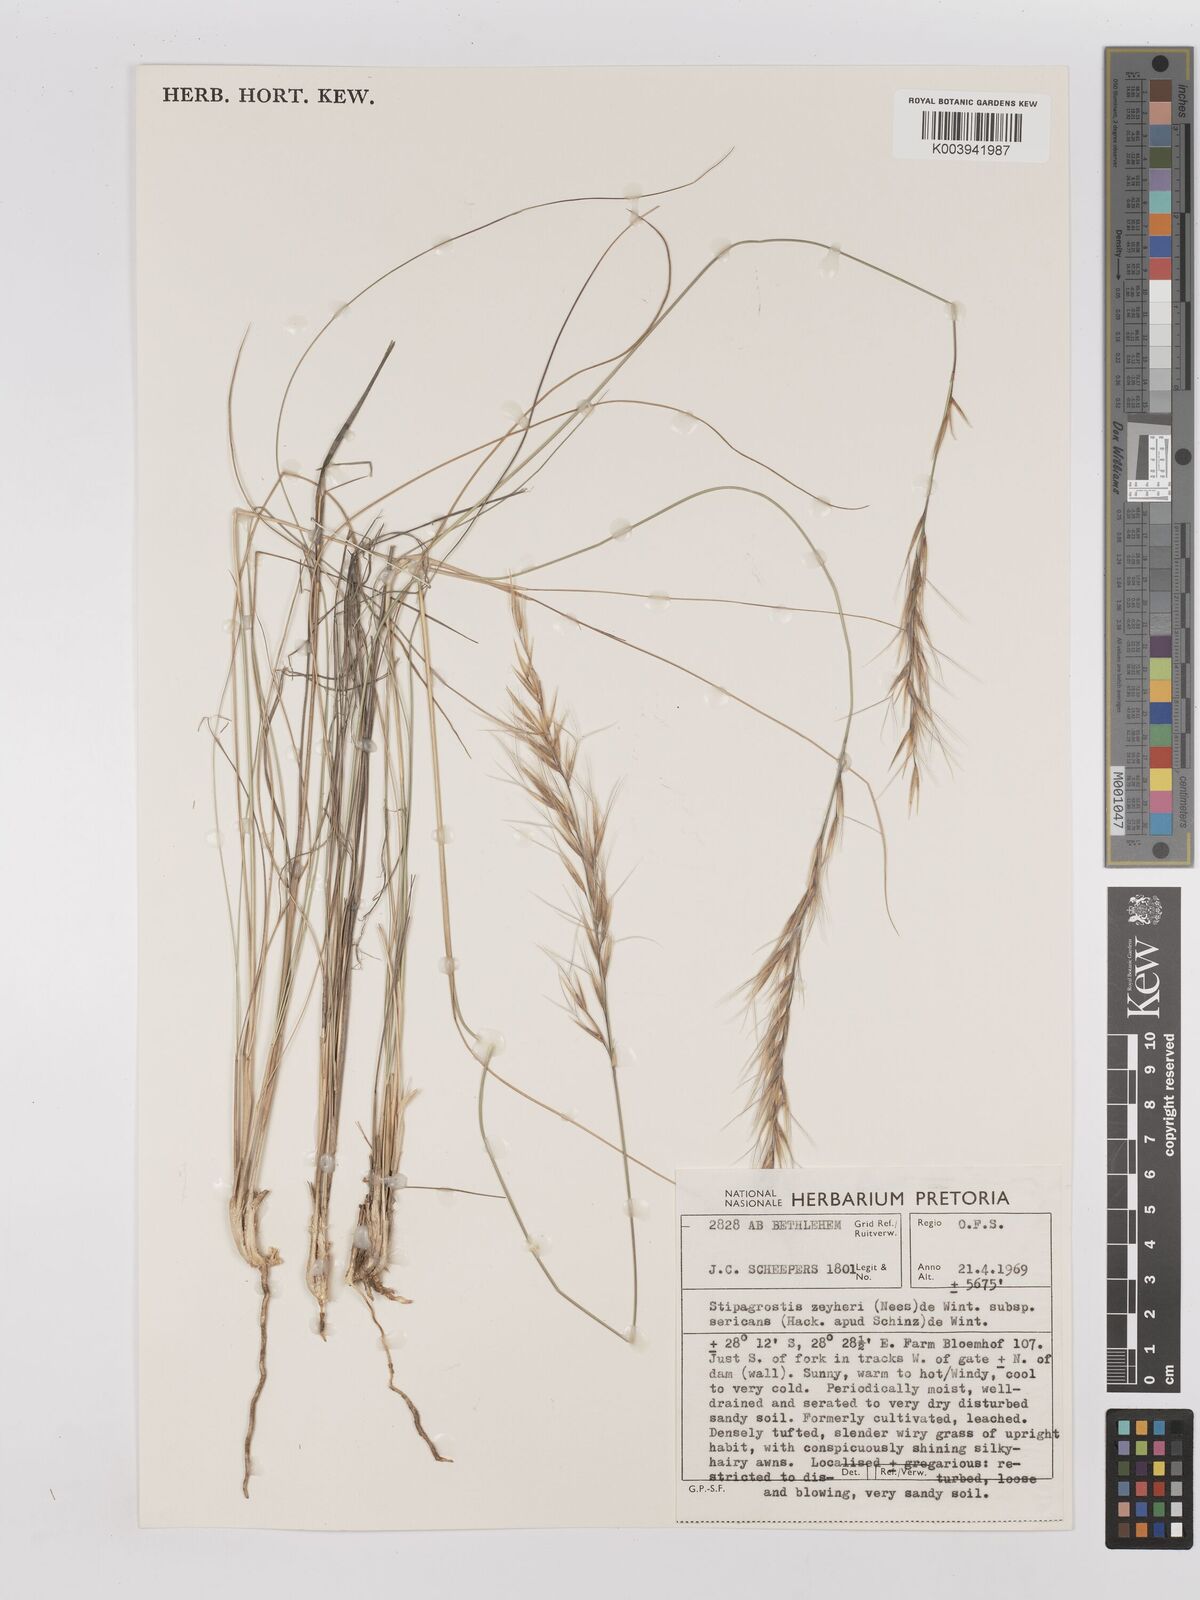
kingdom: Plantae
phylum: Tracheophyta
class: Liliopsida
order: Poales
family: Poaceae
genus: Stipagrostis
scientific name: Stipagrostis zeyheri
